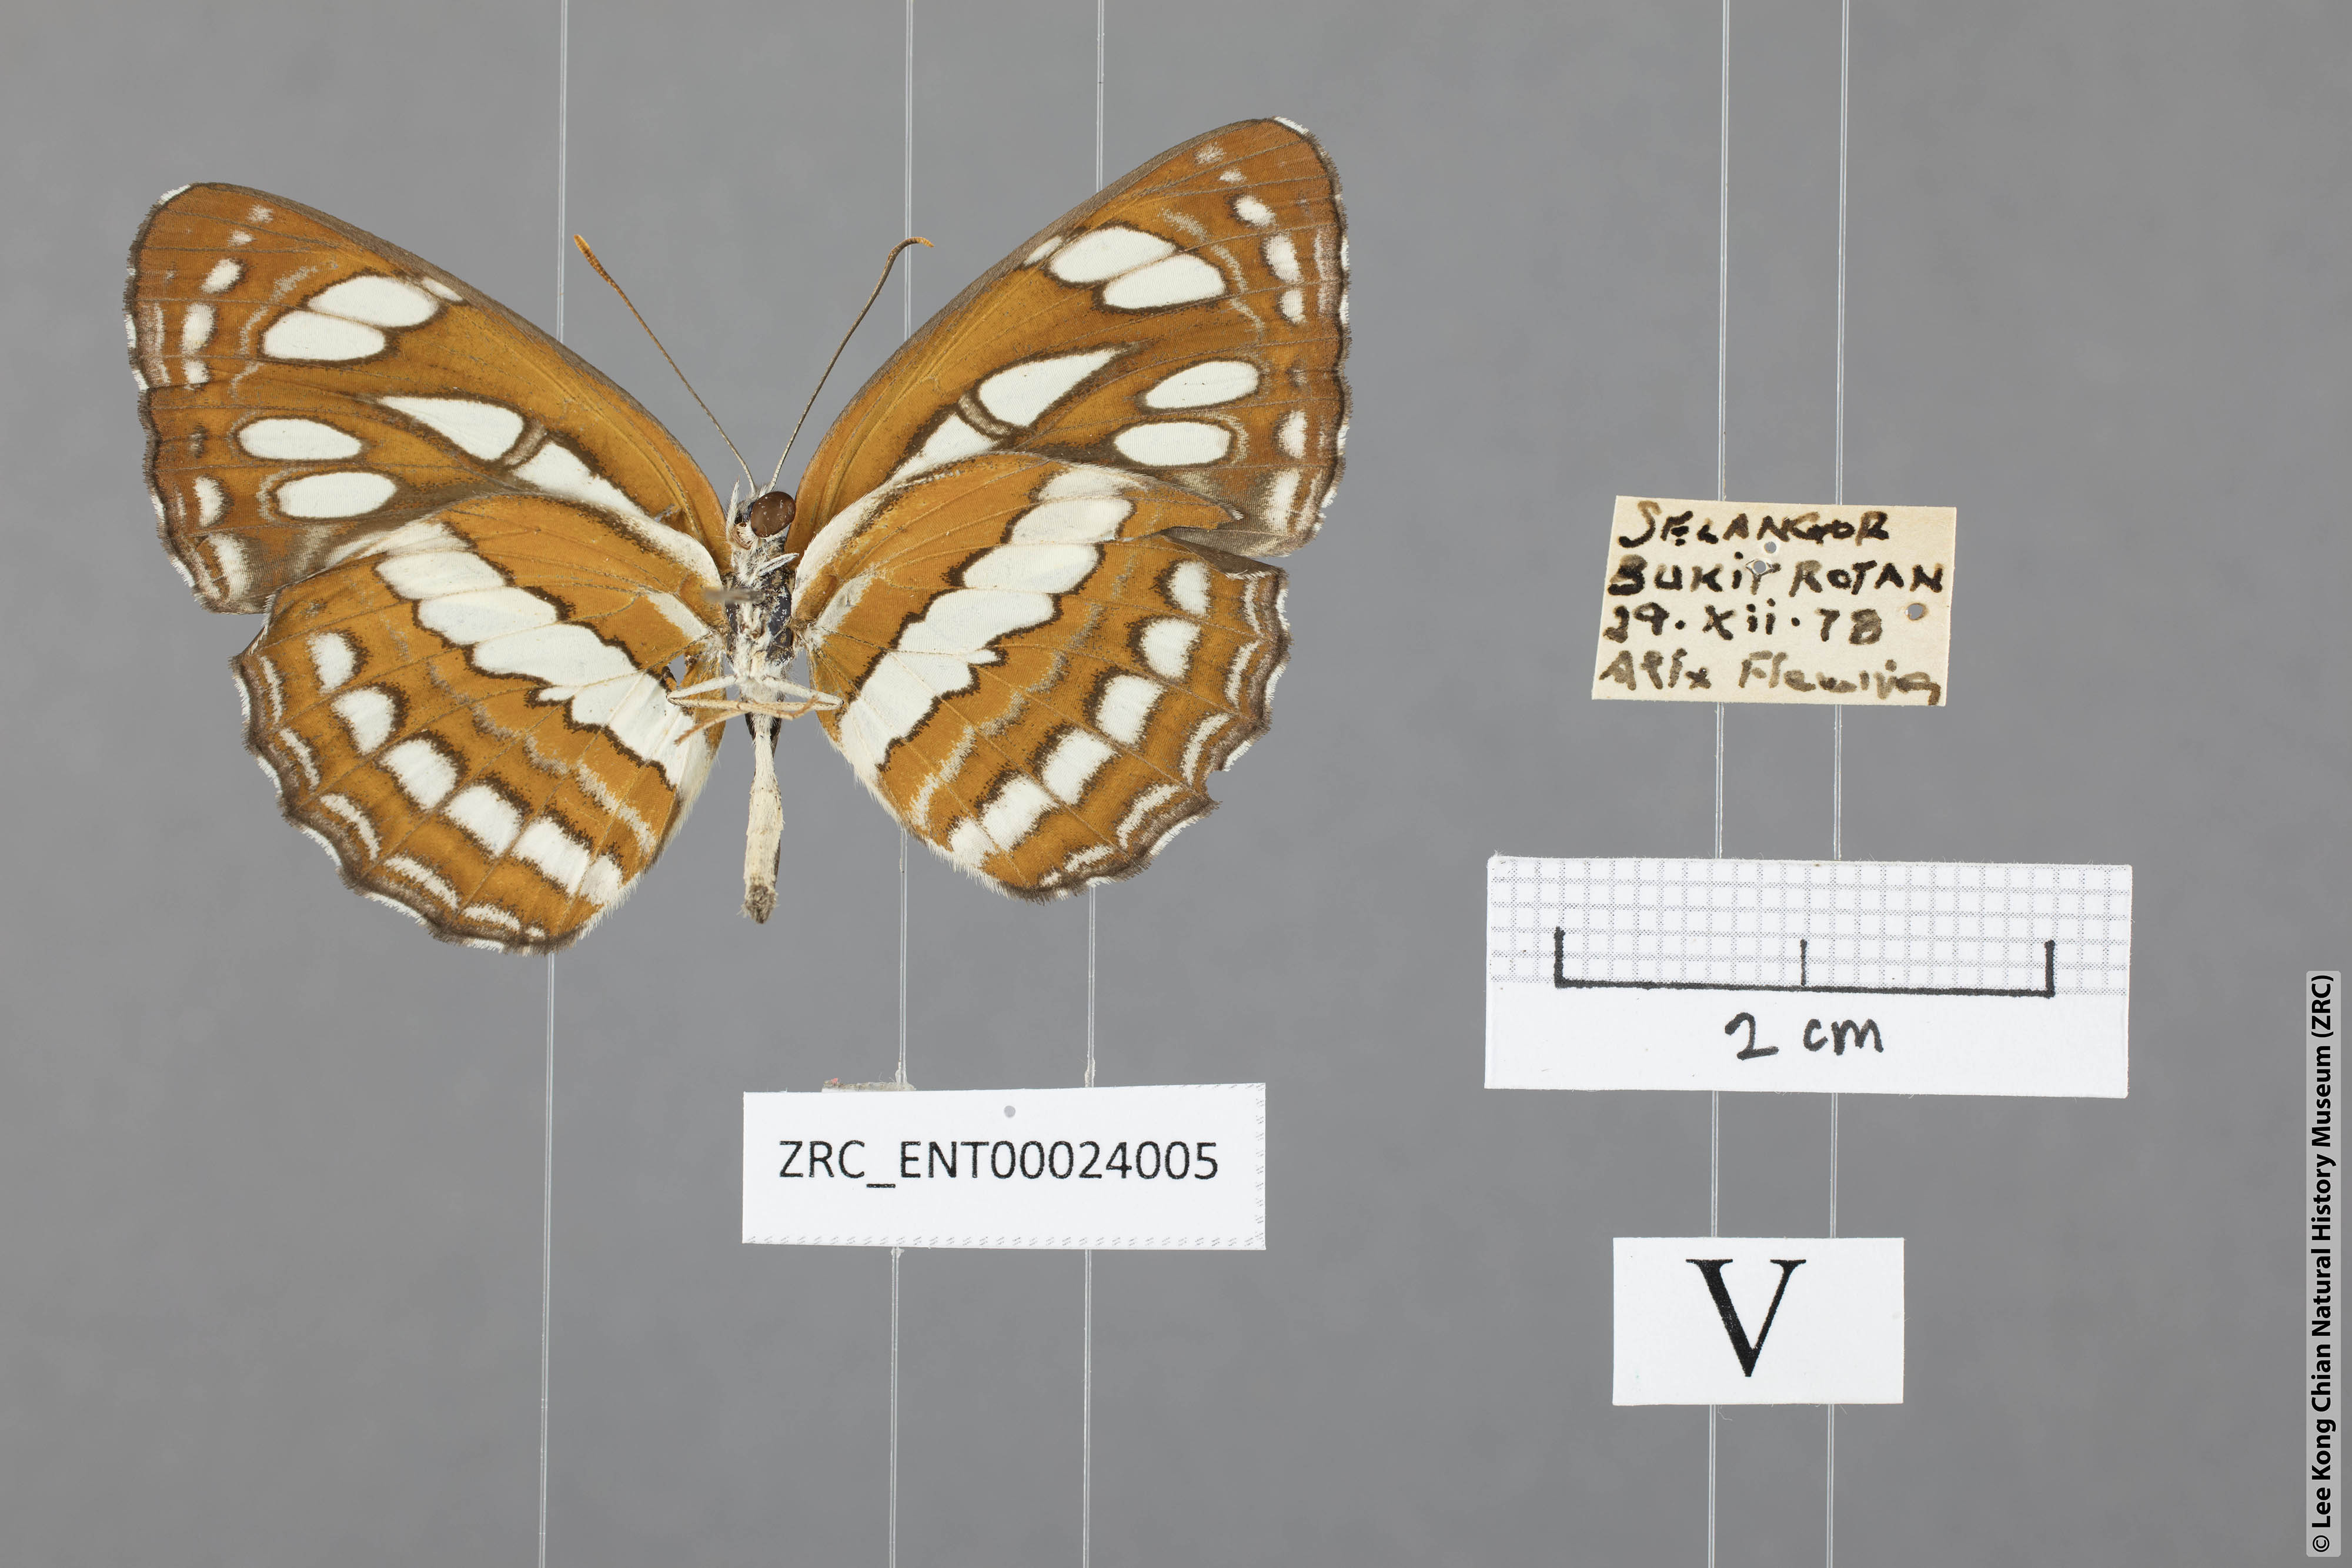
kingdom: Animalia
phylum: Arthropoda
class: Insecta
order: Lepidoptera
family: Nymphalidae
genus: Neptis
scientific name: Neptis hylas
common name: Common sailer
